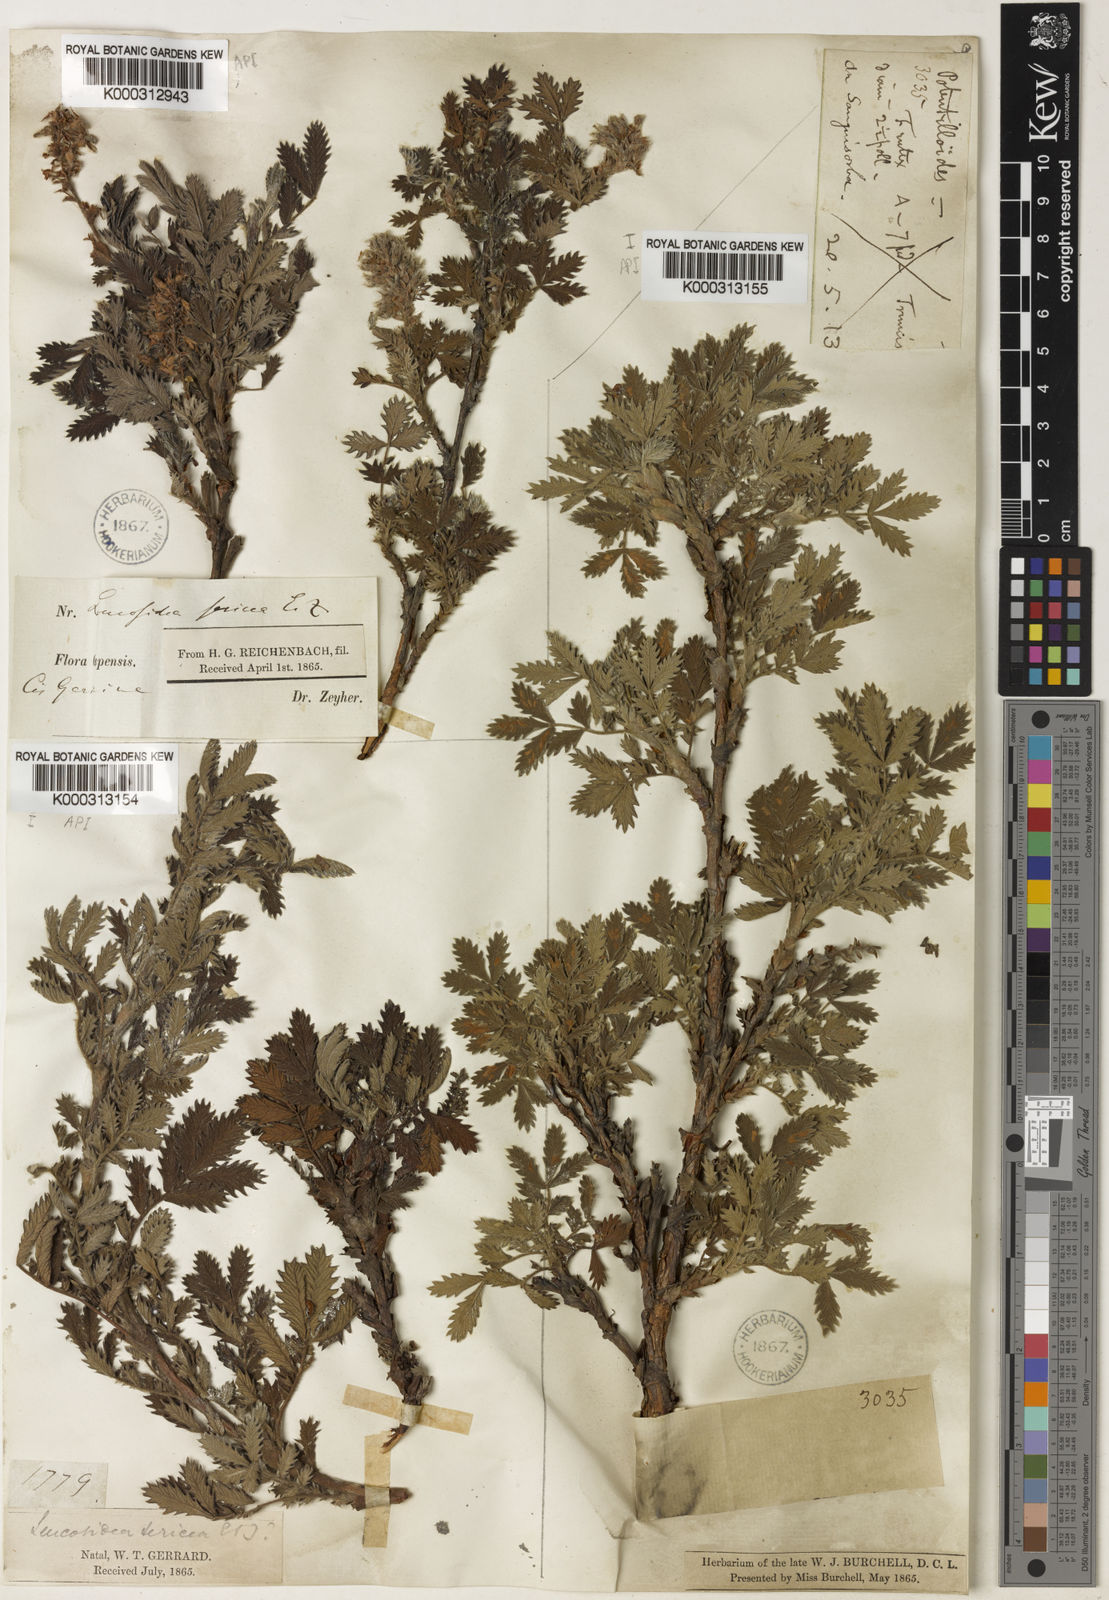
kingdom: Plantae
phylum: Tracheophyta
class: Magnoliopsida
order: Rosales
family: Rosaceae
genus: Leucosidea
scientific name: Leucosidea sericea
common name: Oldwood
